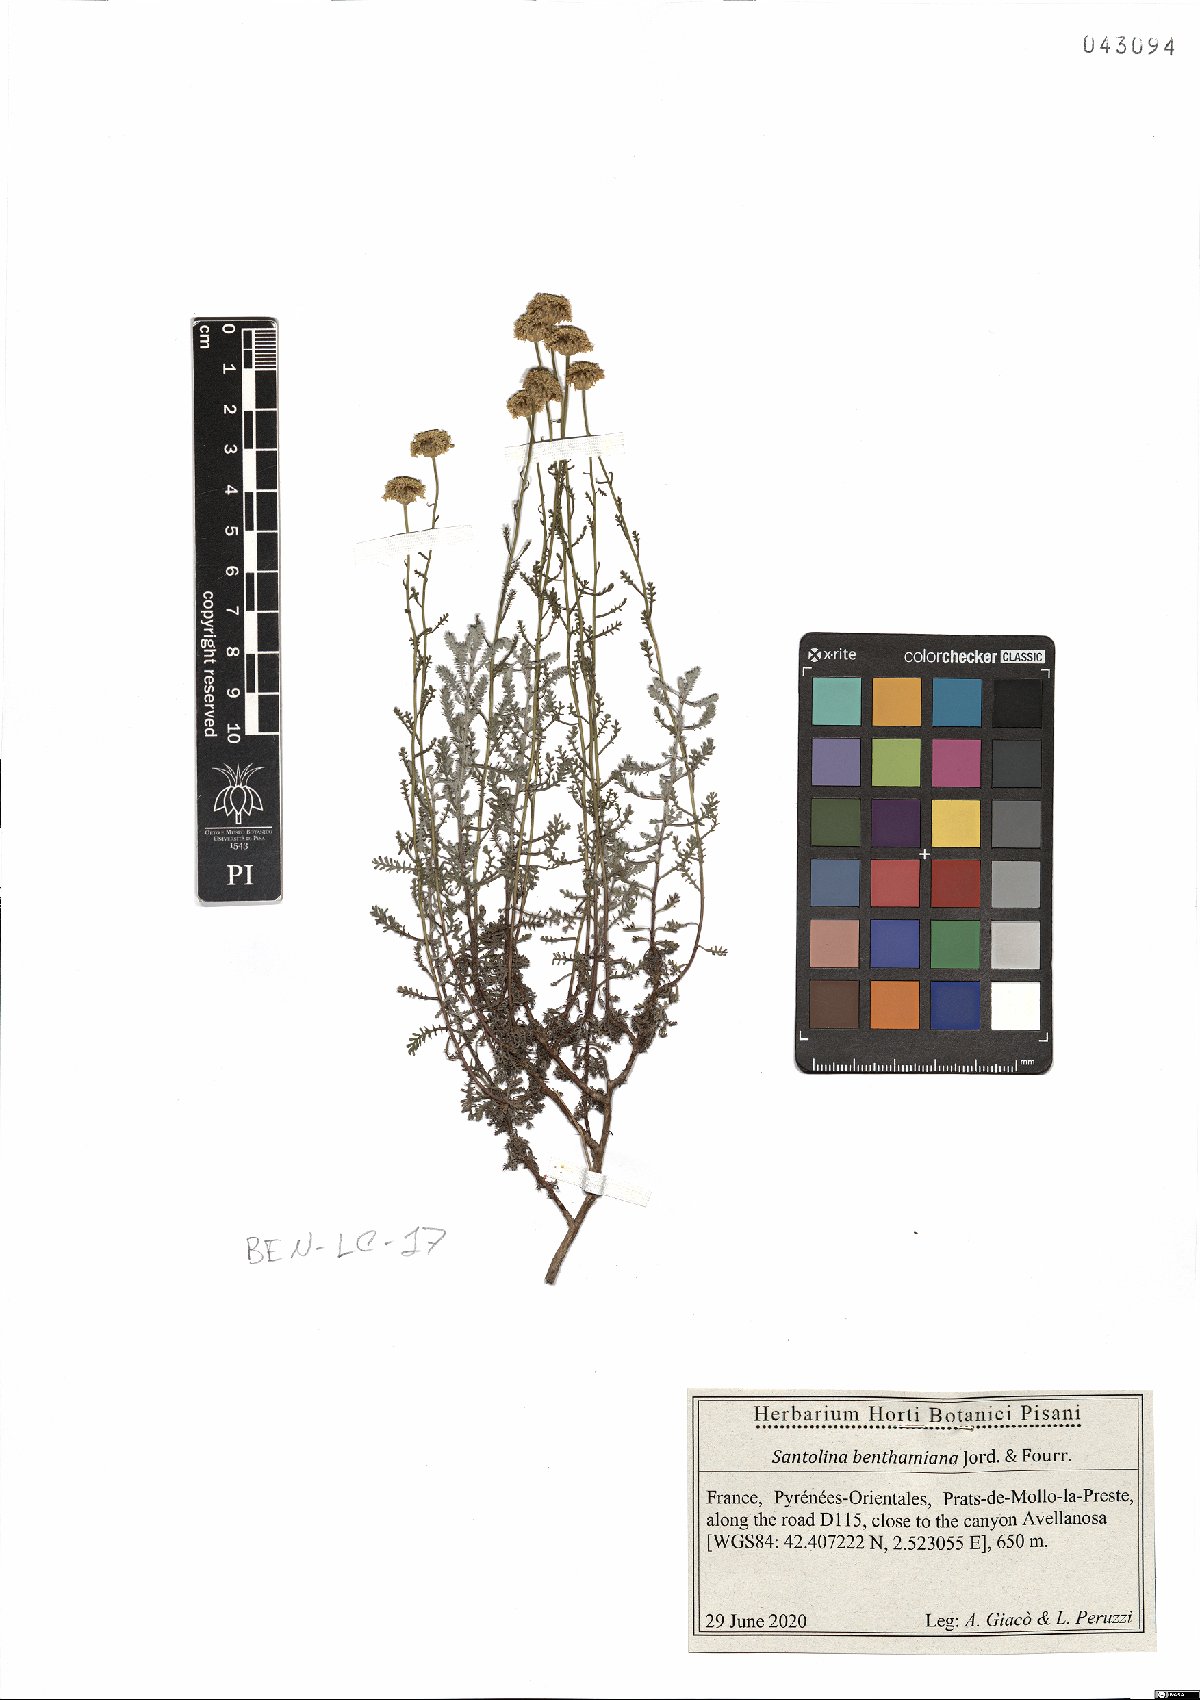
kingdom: Plantae
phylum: Tracheophyta
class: Magnoliopsida
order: Asterales
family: Asteraceae
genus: Santolina
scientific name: Santolina benthamiana
